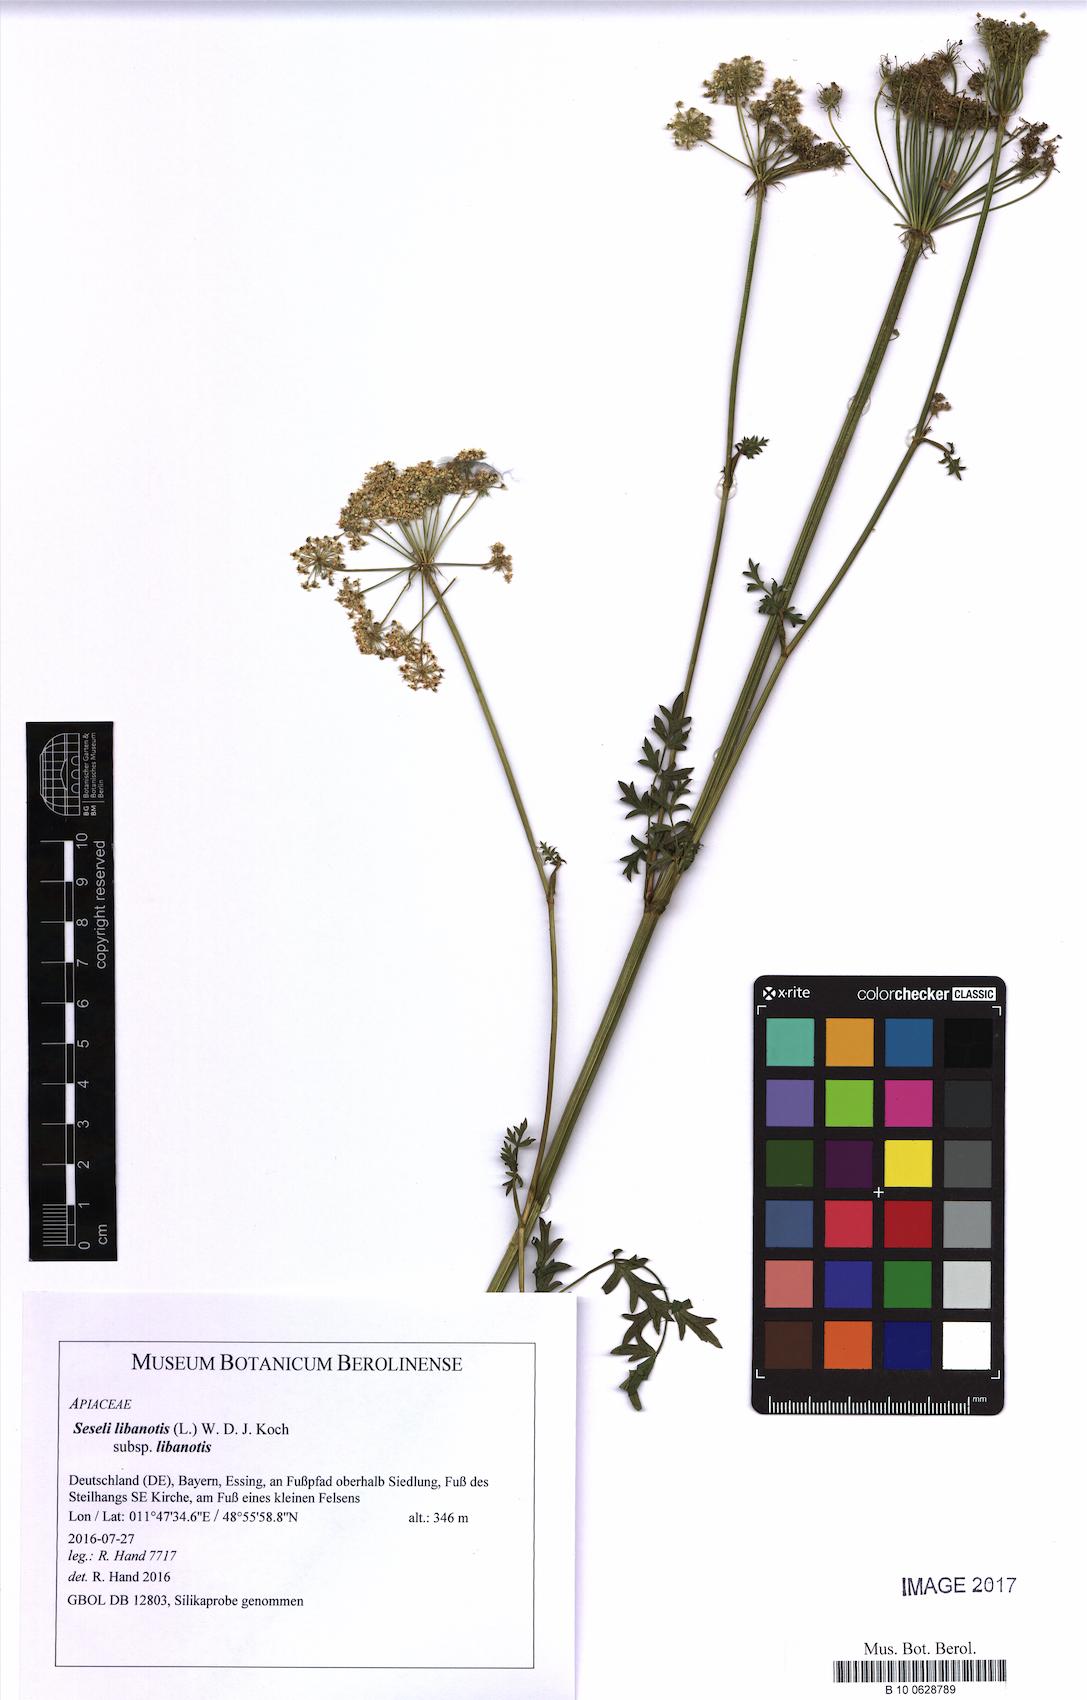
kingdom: Plantae
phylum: Tracheophyta
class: Magnoliopsida
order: Apiales
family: Apiaceae
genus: Seseli
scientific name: Seseli libanotis
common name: Mooncarrot
